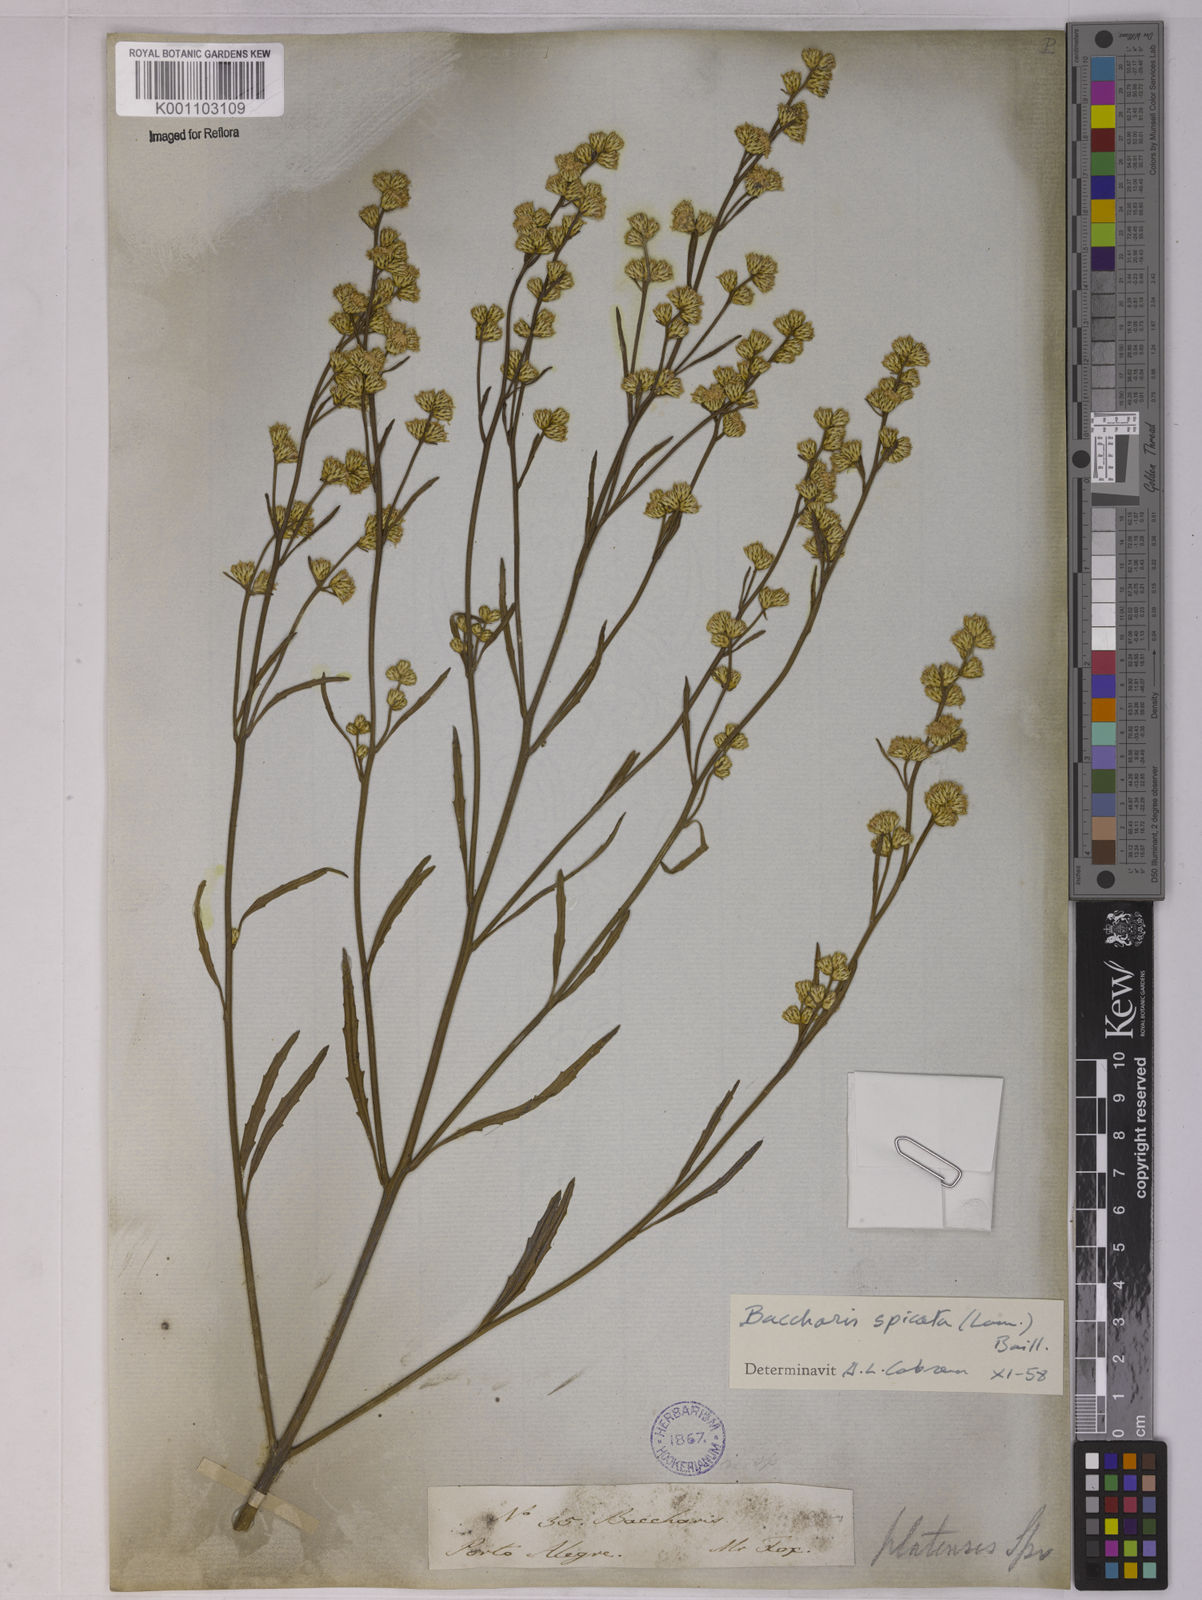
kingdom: Plantae
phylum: Tracheophyta
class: Magnoliopsida
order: Asterales
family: Asteraceae
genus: Baccharis
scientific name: Baccharis spicata
